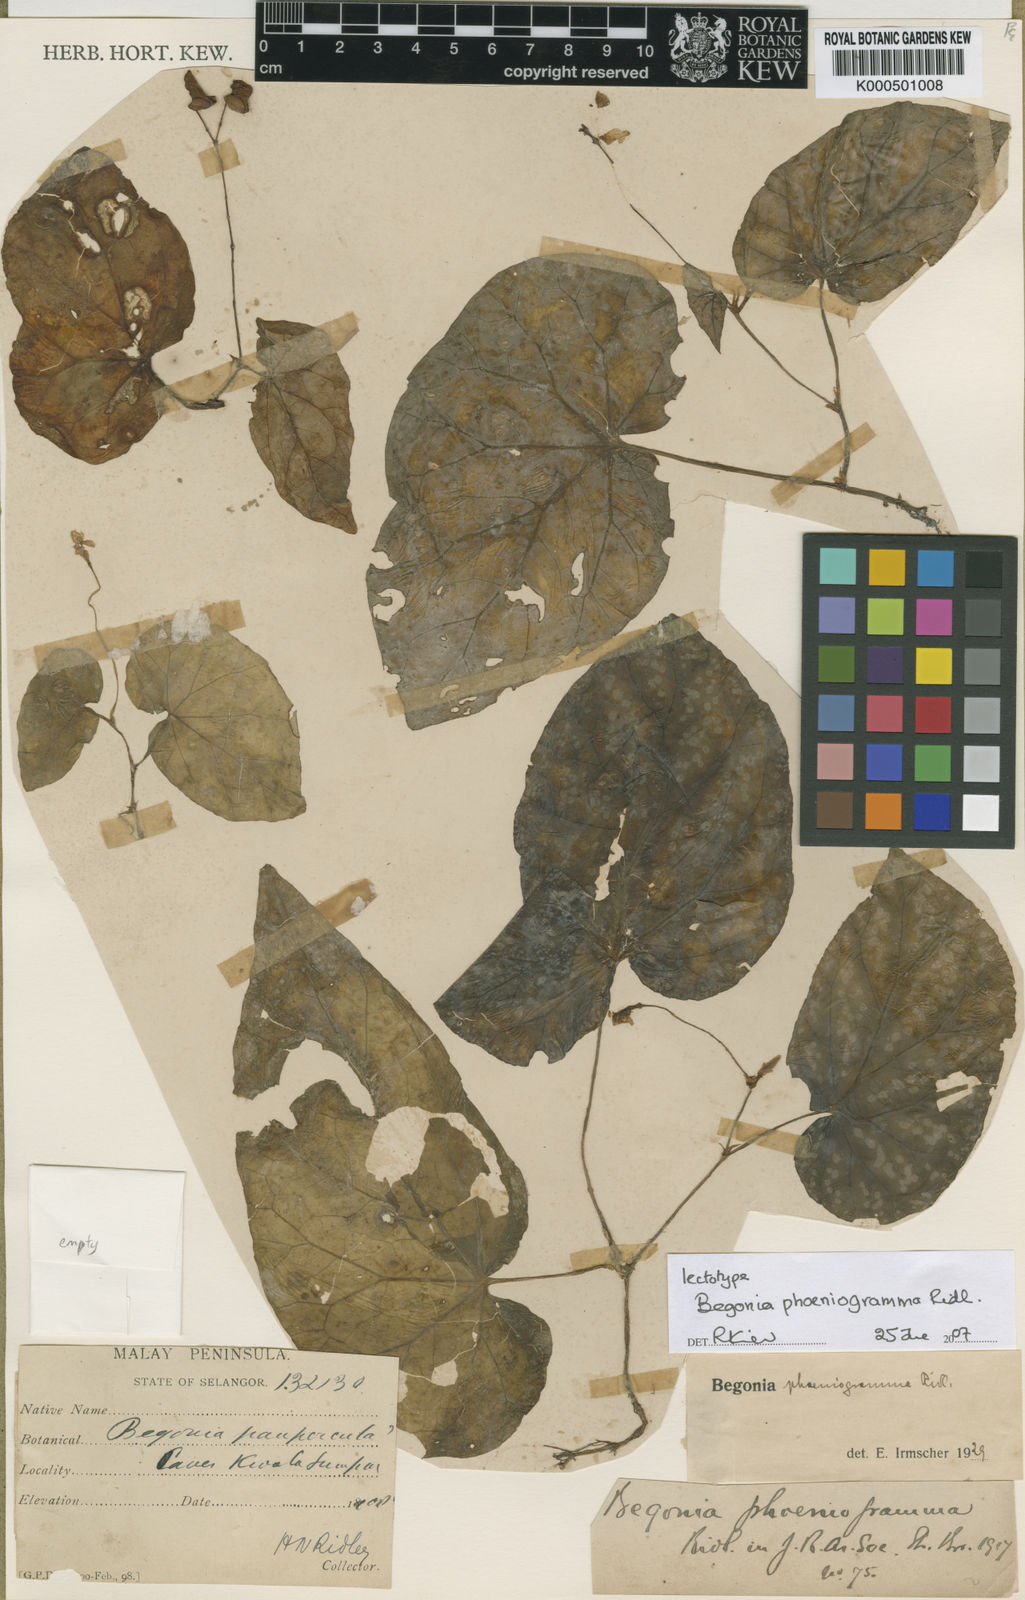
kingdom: Plantae
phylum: Tracheophyta
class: Magnoliopsida
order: Cucurbitales
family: Begoniaceae
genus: Begonia
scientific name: Begonia phoeniogramma
